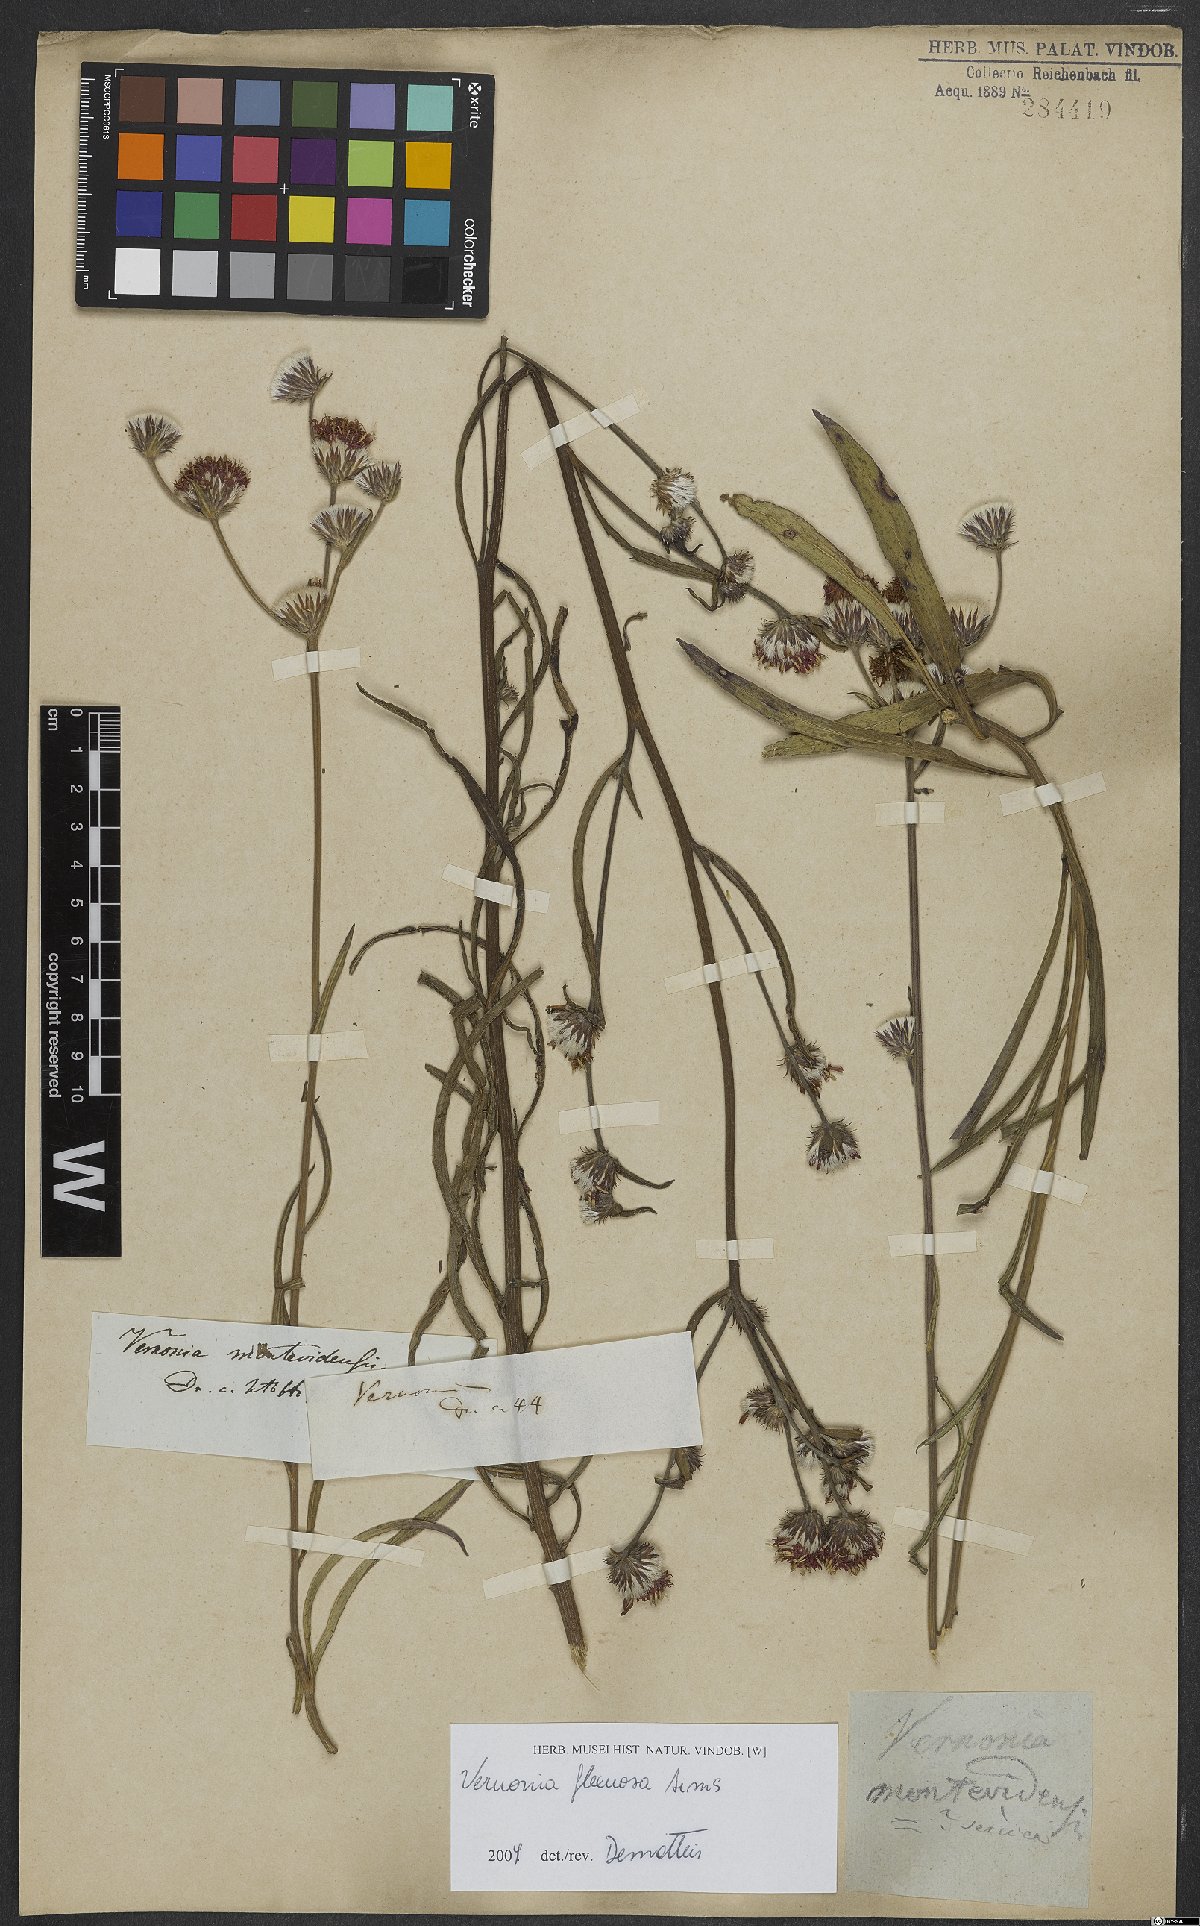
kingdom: Plantae
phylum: Tracheophyta
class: Magnoliopsida
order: Asterales
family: Asteraceae
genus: Chrysolaena
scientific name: Chrysolaena flexuosa
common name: Zig-zag vernonia
